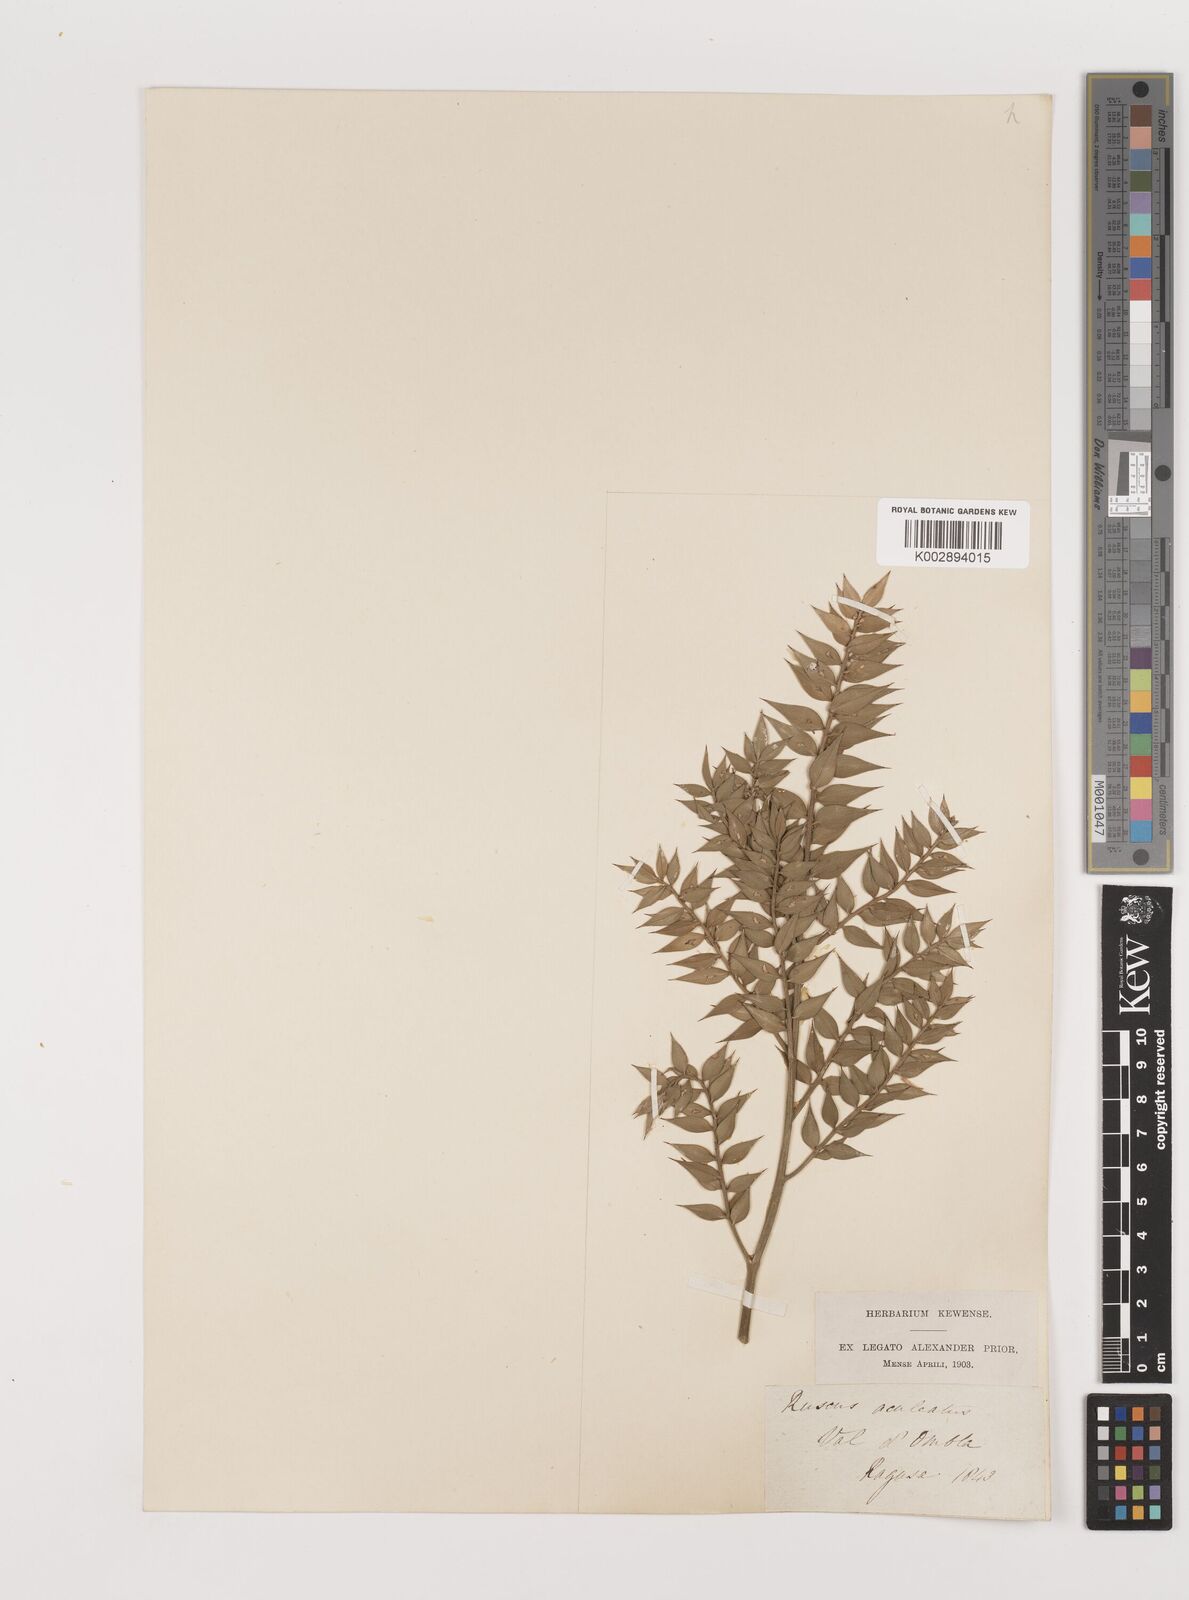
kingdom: Plantae
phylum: Tracheophyta
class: Liliopsida
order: Asparagales
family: Asparagaceae
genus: Ruscus
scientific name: Ruscus aculeatus
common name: Butcher's-broom
